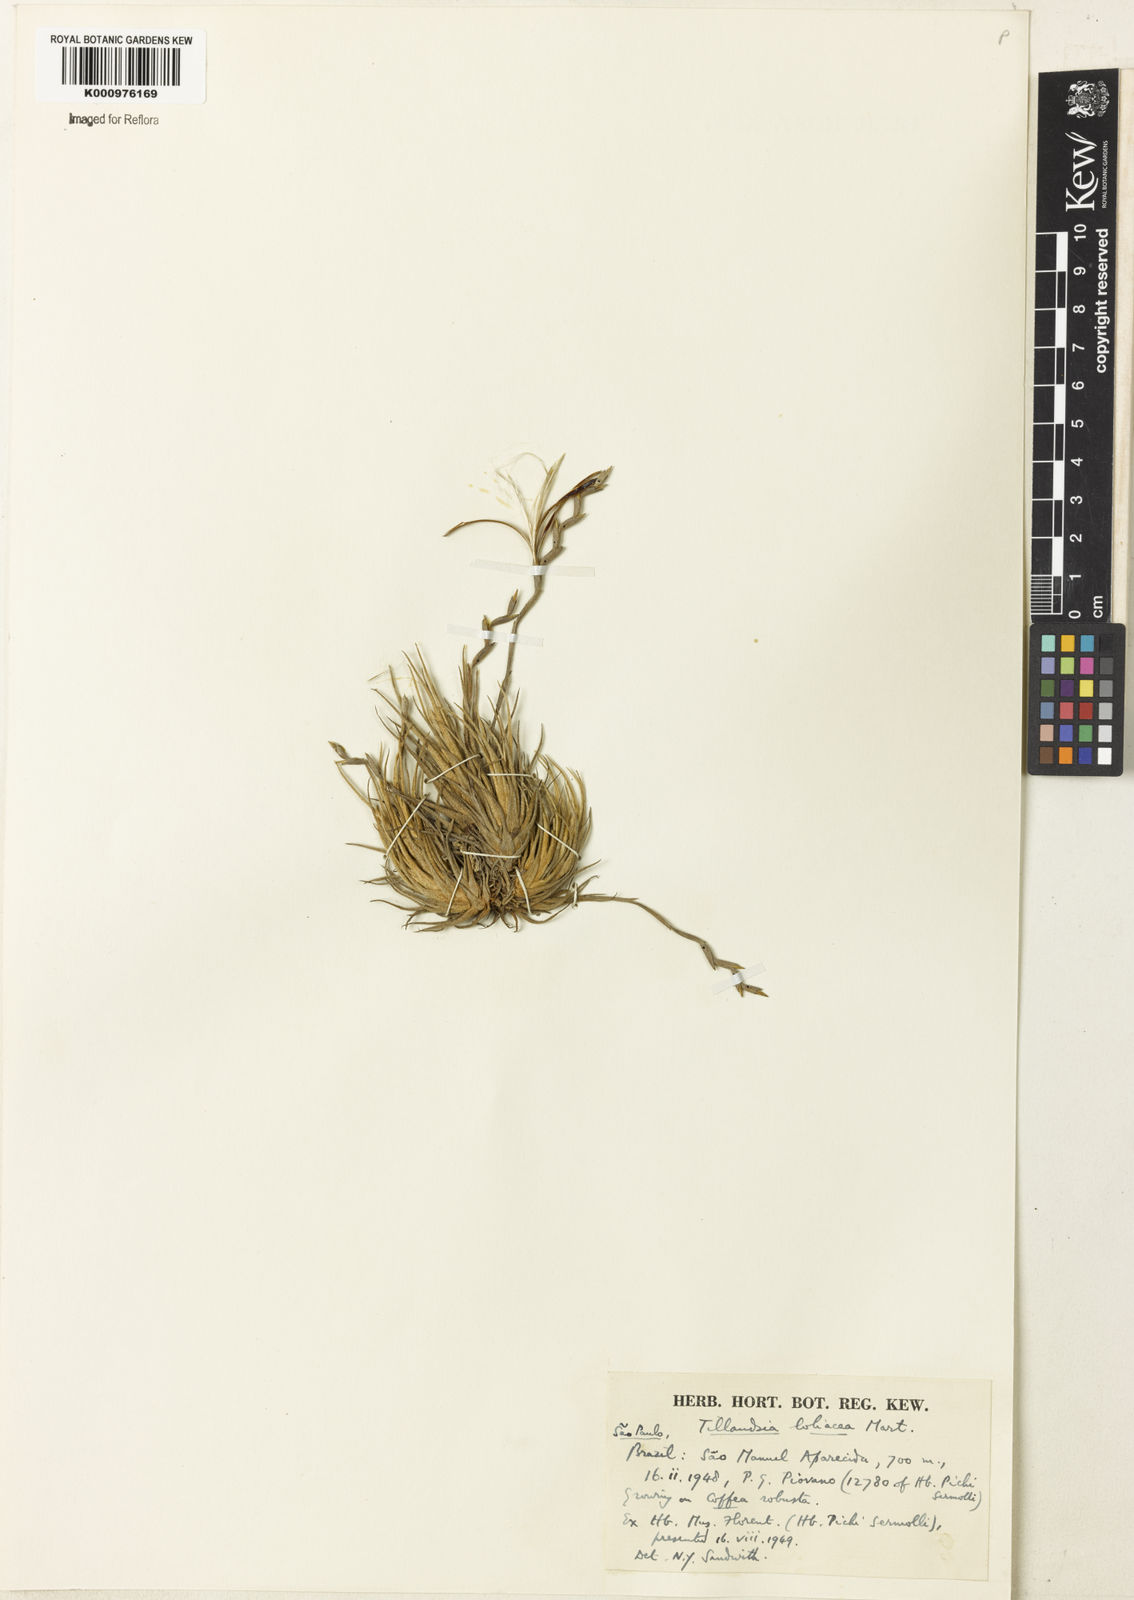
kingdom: Plantae
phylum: Tracheophyta
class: Liliopsida
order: Poales
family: Bromeliaceae
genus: Tillandsia
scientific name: Tillandsia loliacea
